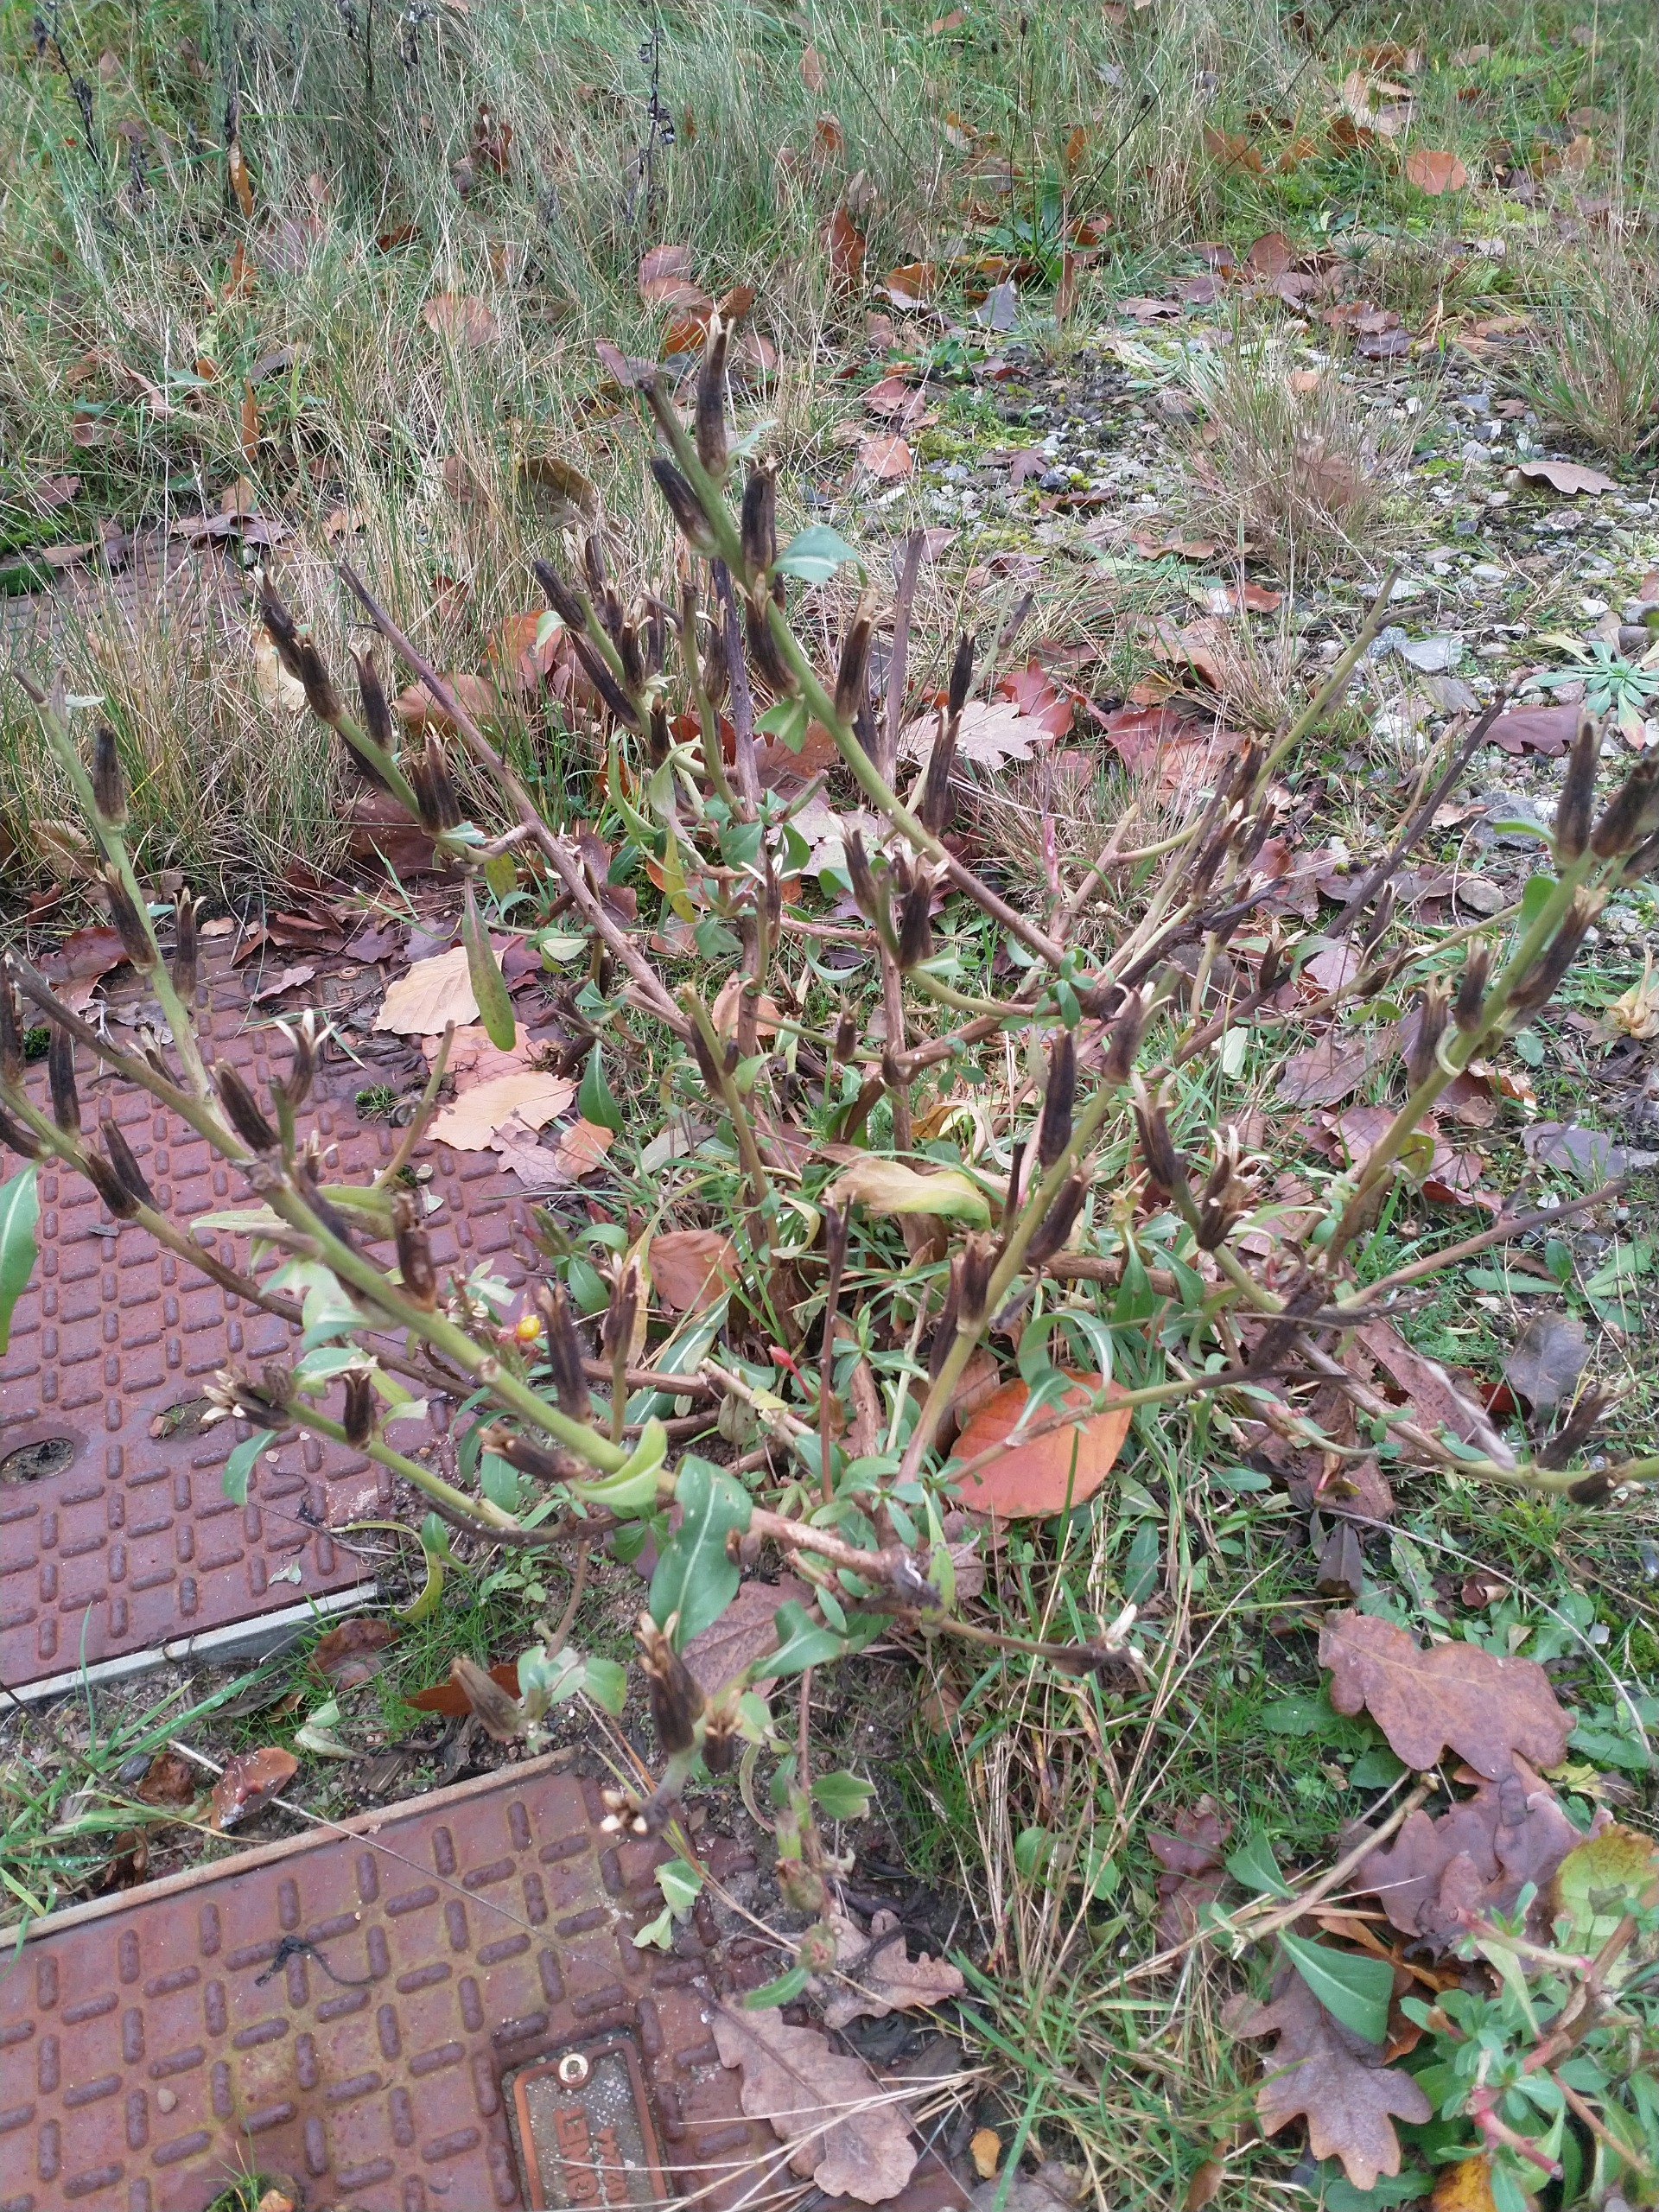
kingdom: Plantae
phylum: Tracheophyta
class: Magnoliopsida
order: Myrtales
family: Onagraceae
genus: Oenothera
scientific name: Oenothera
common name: Natlysslægten
